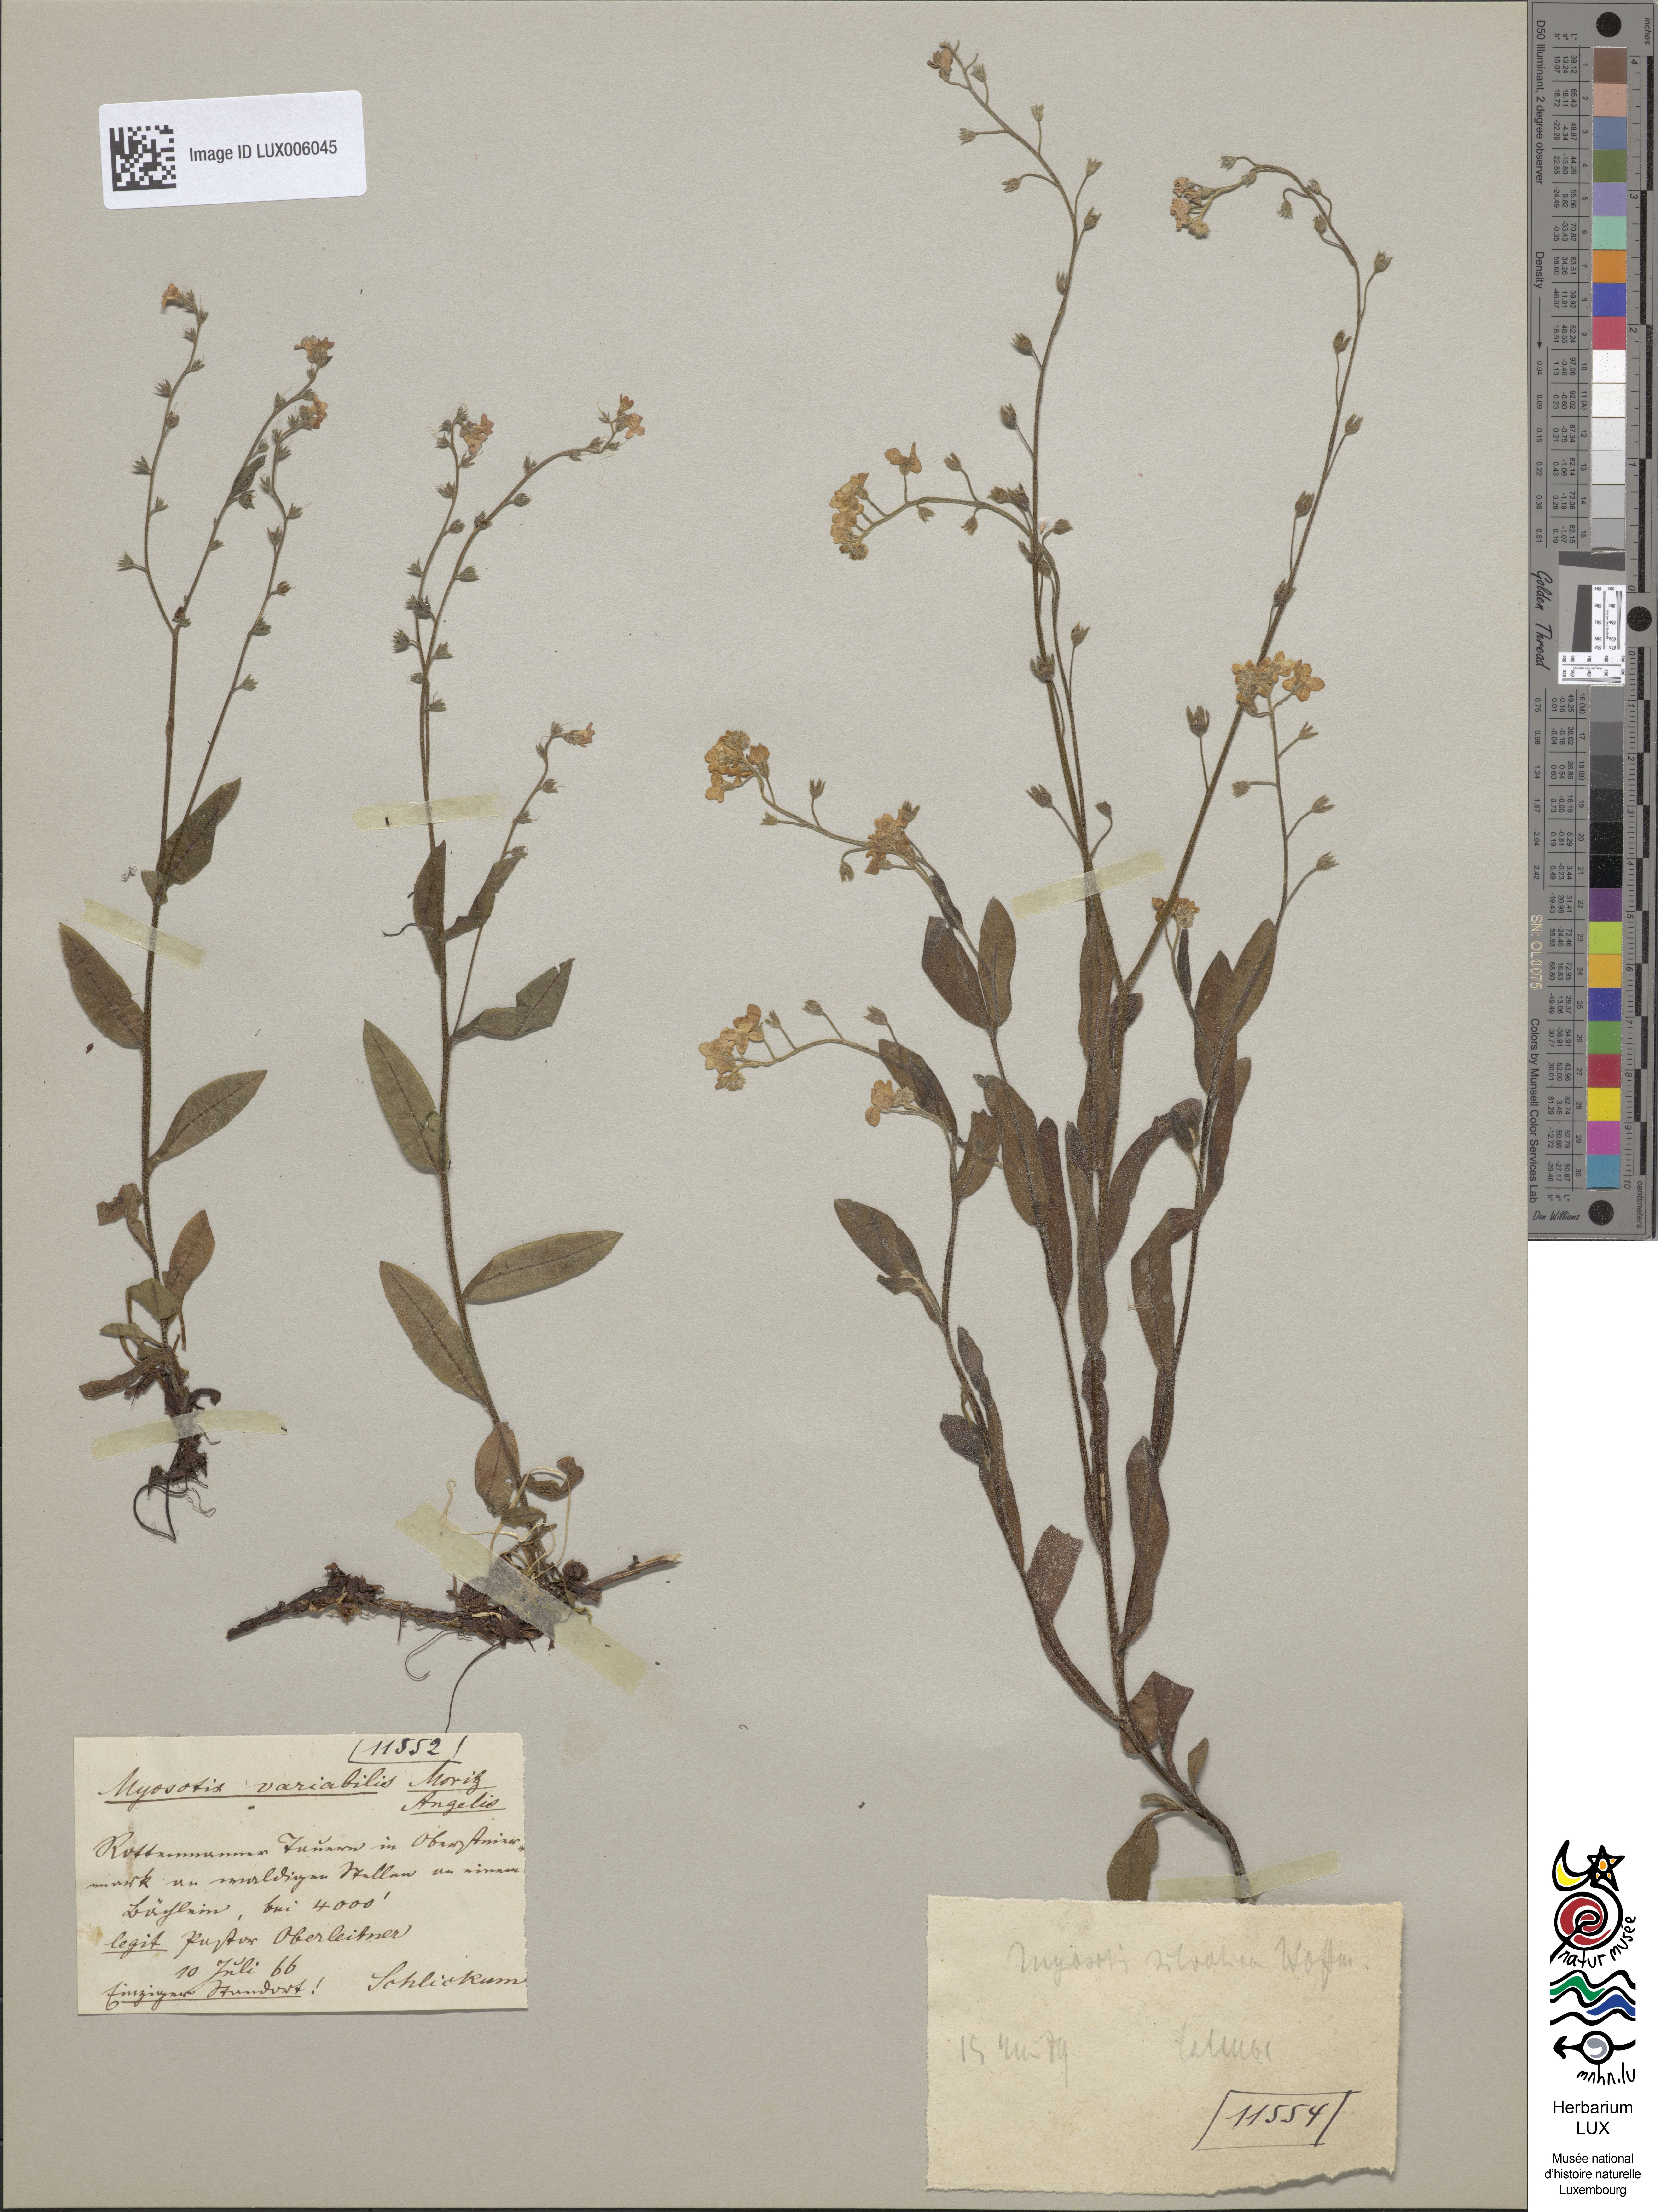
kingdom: Plantae
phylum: Tracheophyta
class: Magnoliopsida
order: Boraginales
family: Boraginaceae
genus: Myosotis
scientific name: Myosotis sylvatica
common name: Wood forget-me-not
